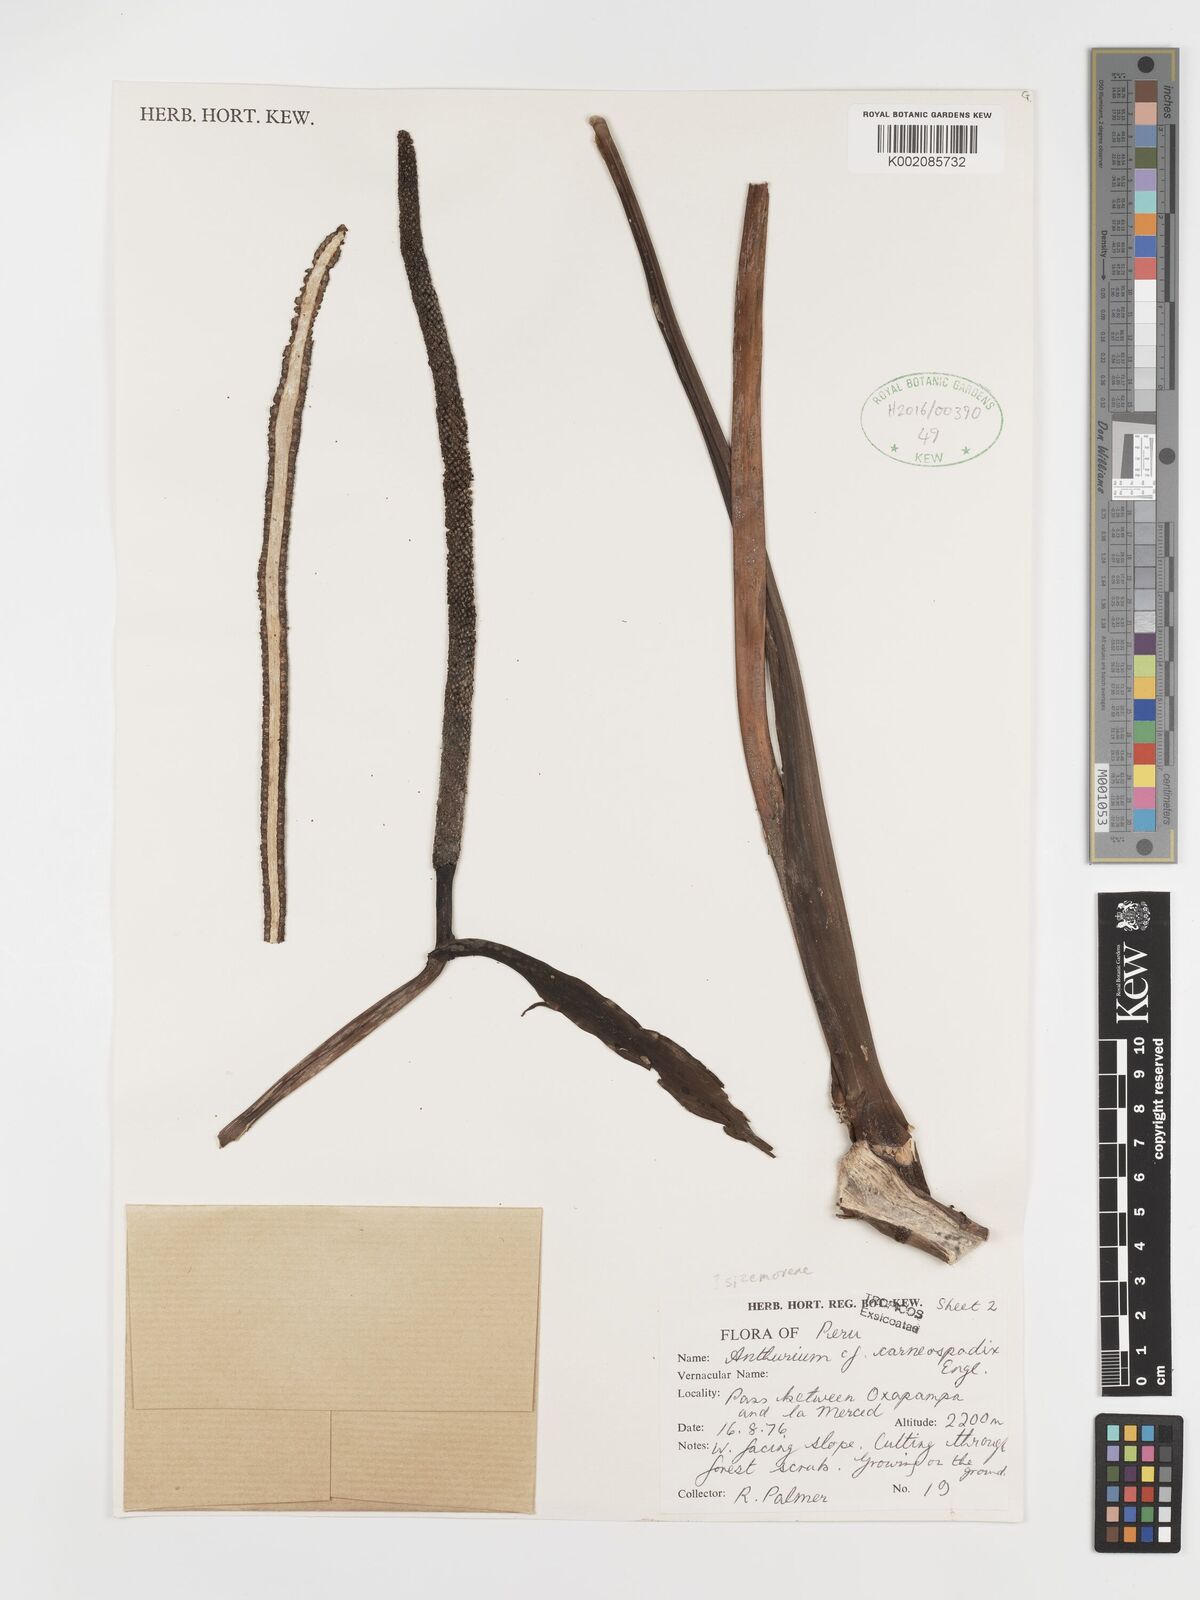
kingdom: Plantae
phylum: Tracheophyta
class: Liliopsida
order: Alismatales
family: Araceae
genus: Anthurium
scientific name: Anthurium carneospadix
